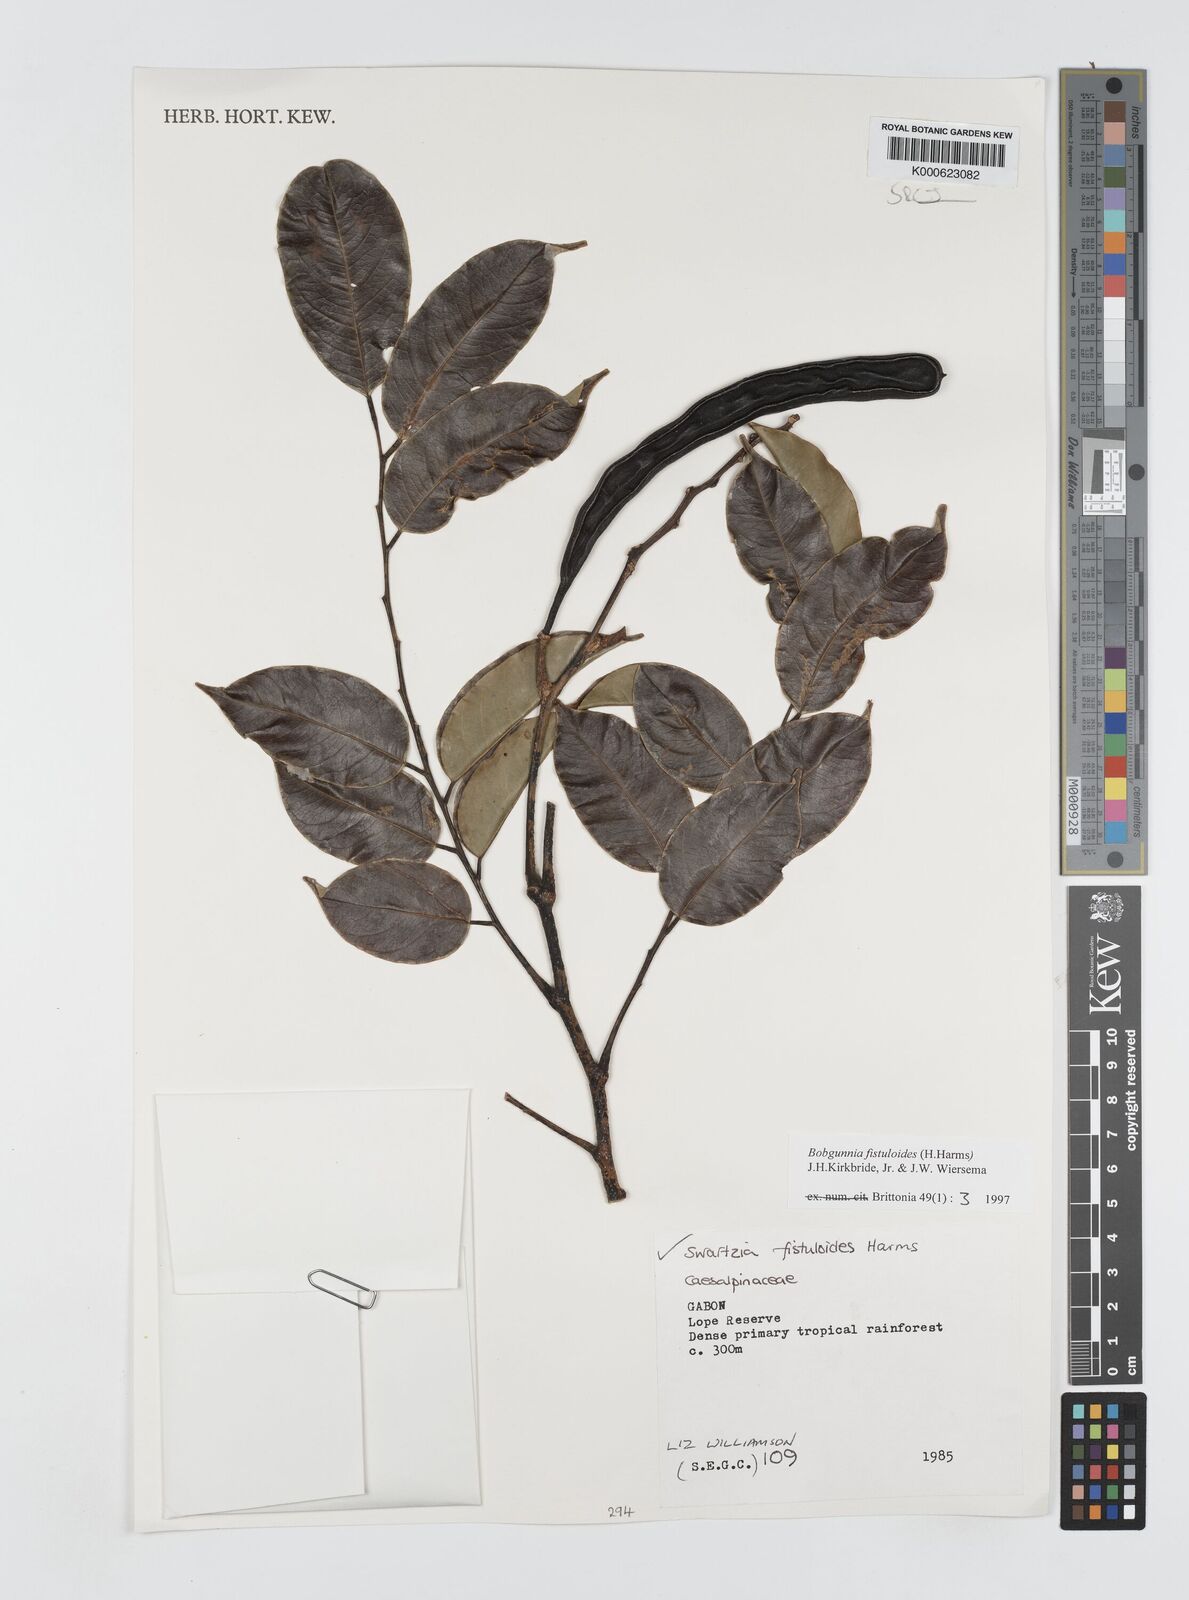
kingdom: Plantae
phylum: Tracheophyta
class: Magnoliopsida
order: Fabales
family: Fabaceae
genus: Bobgunnia
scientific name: Bobgunnia fistuloides
